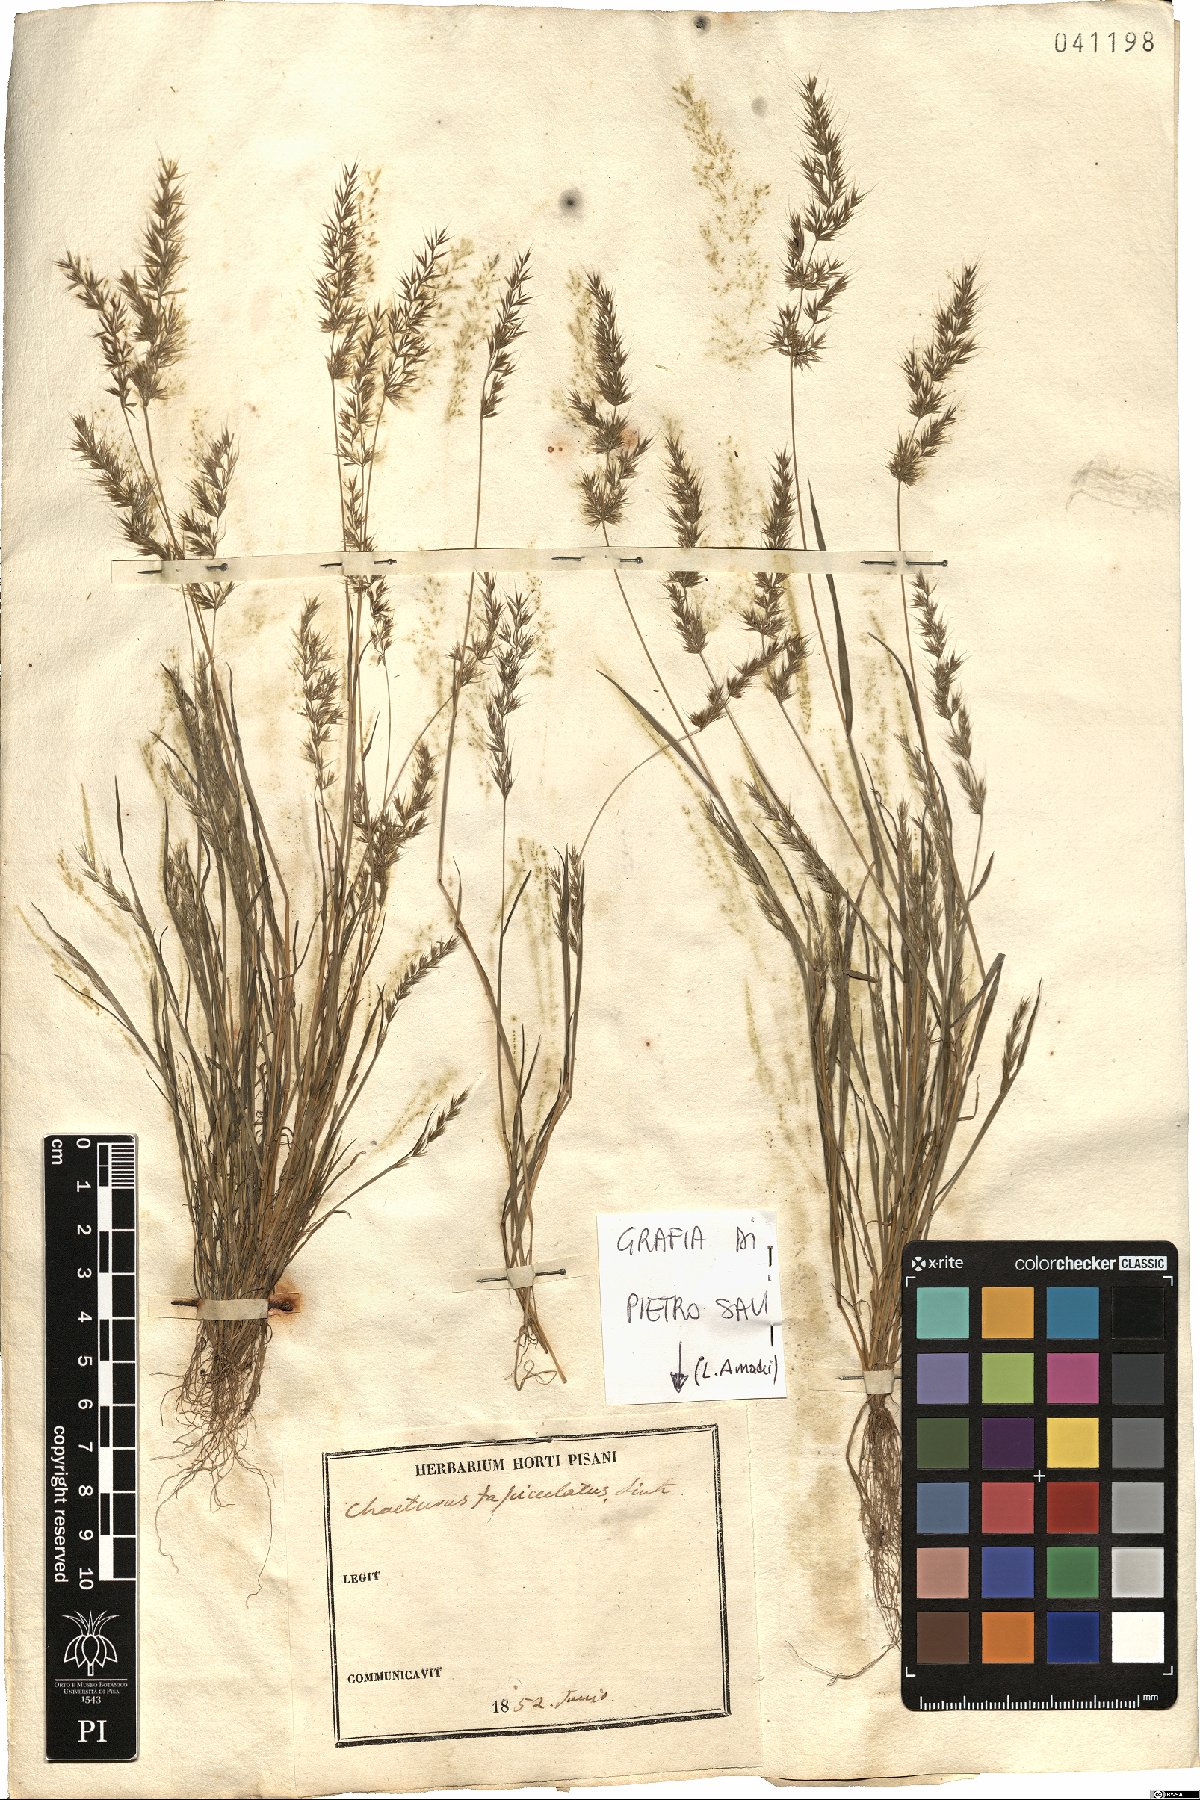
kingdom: Plantae
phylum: Tracheophyta
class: Liliopsida
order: Poales
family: Poaceae
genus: Agrostis
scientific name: Agrostis subspicata
